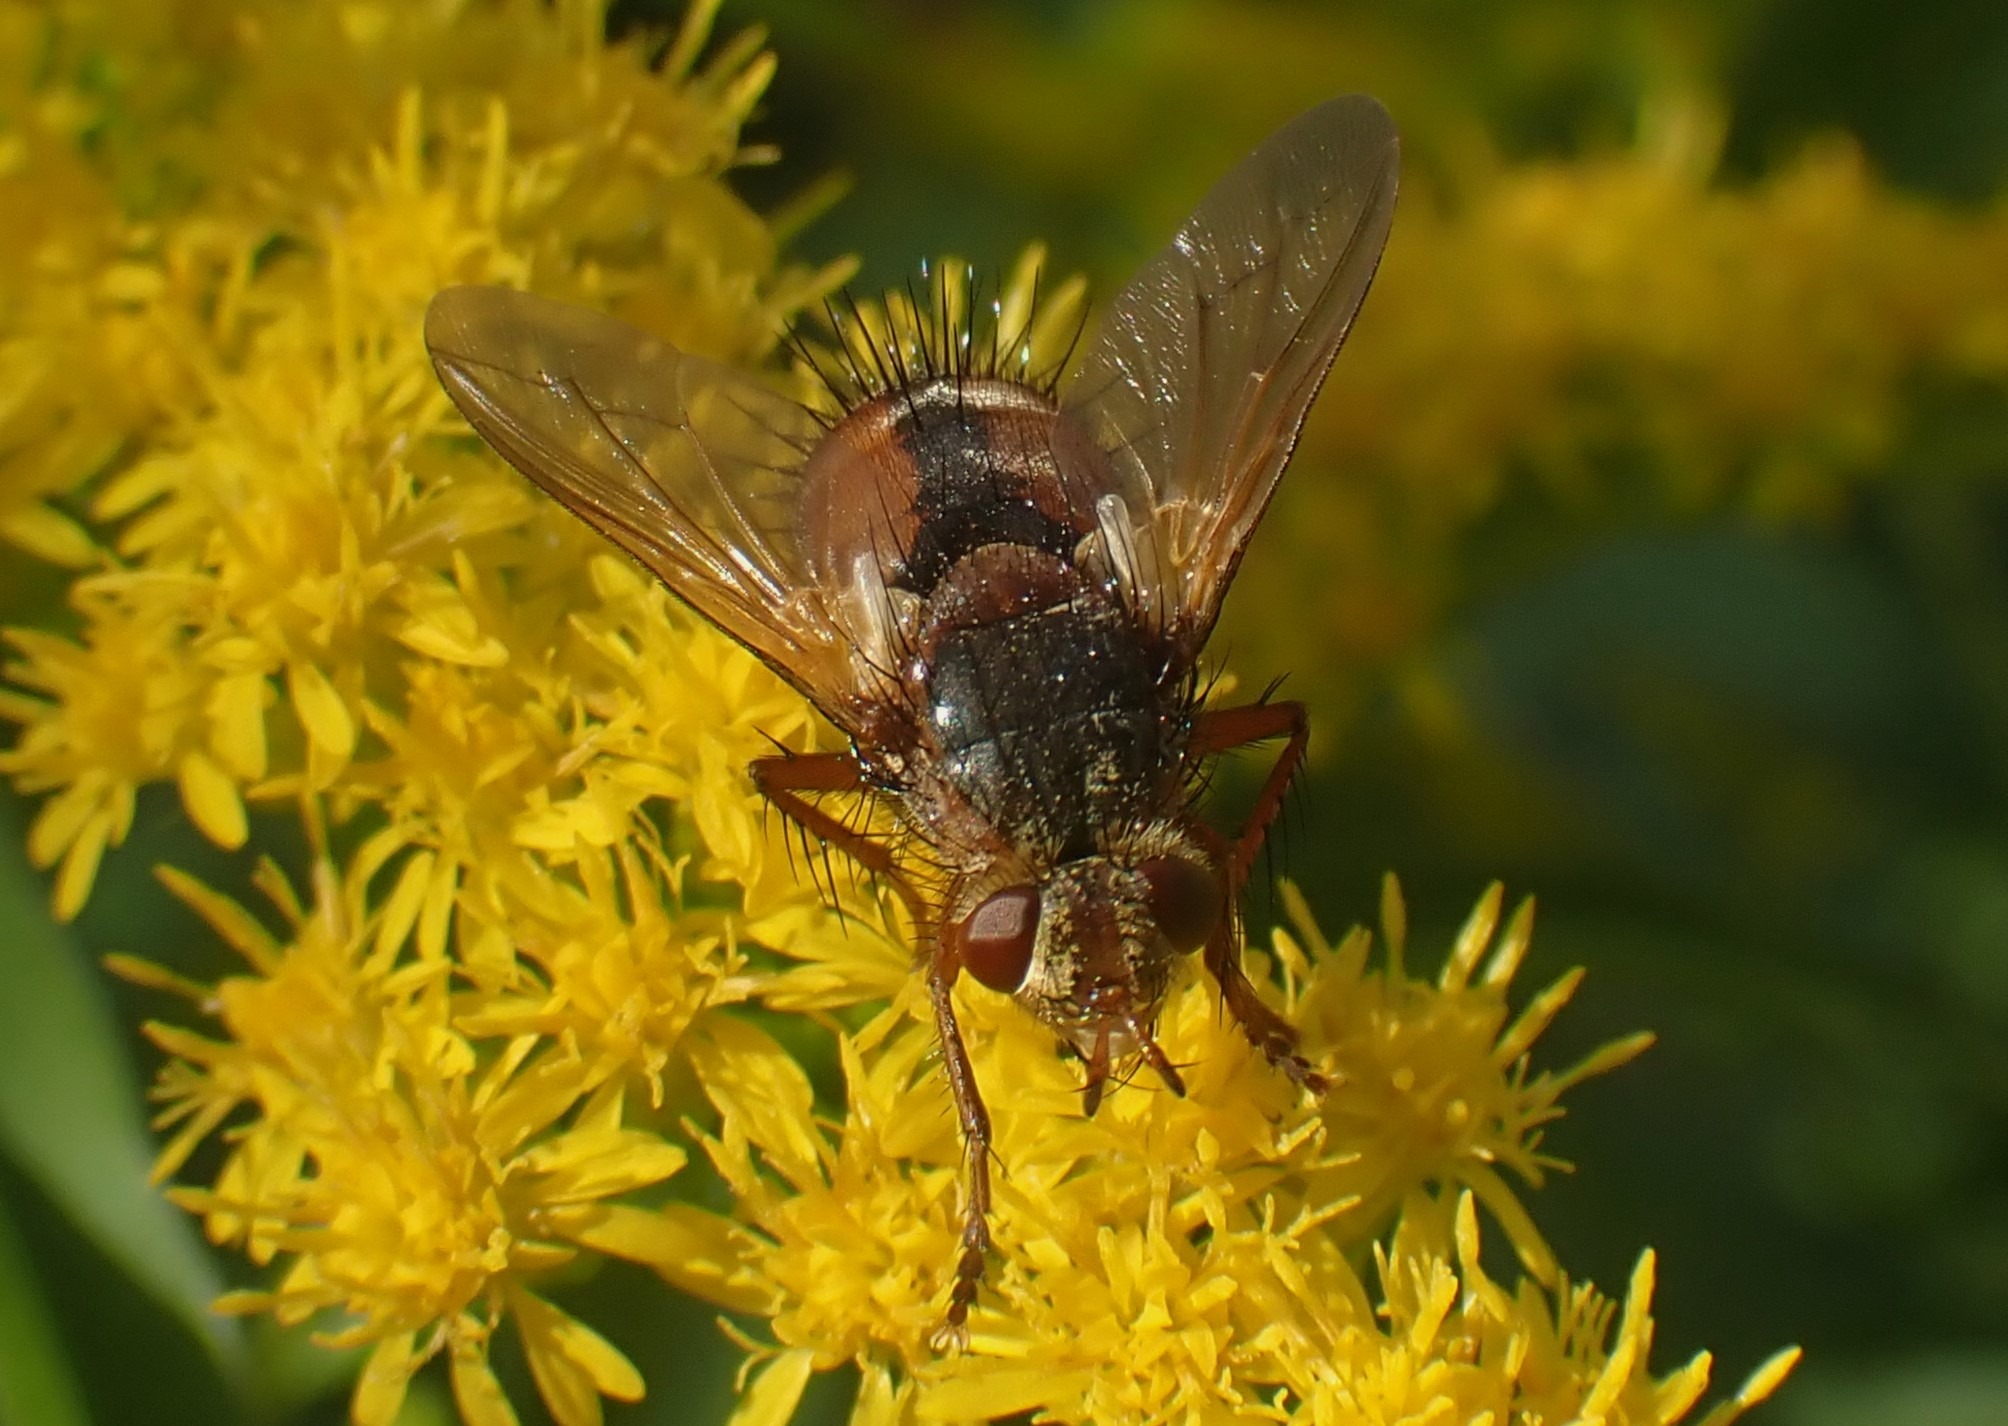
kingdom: Animalia
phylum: Arthropoda
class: Insecta
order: Diptera
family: Tachinidae
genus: Tachina
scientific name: Tachina fera
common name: Mellemfluen oskar
